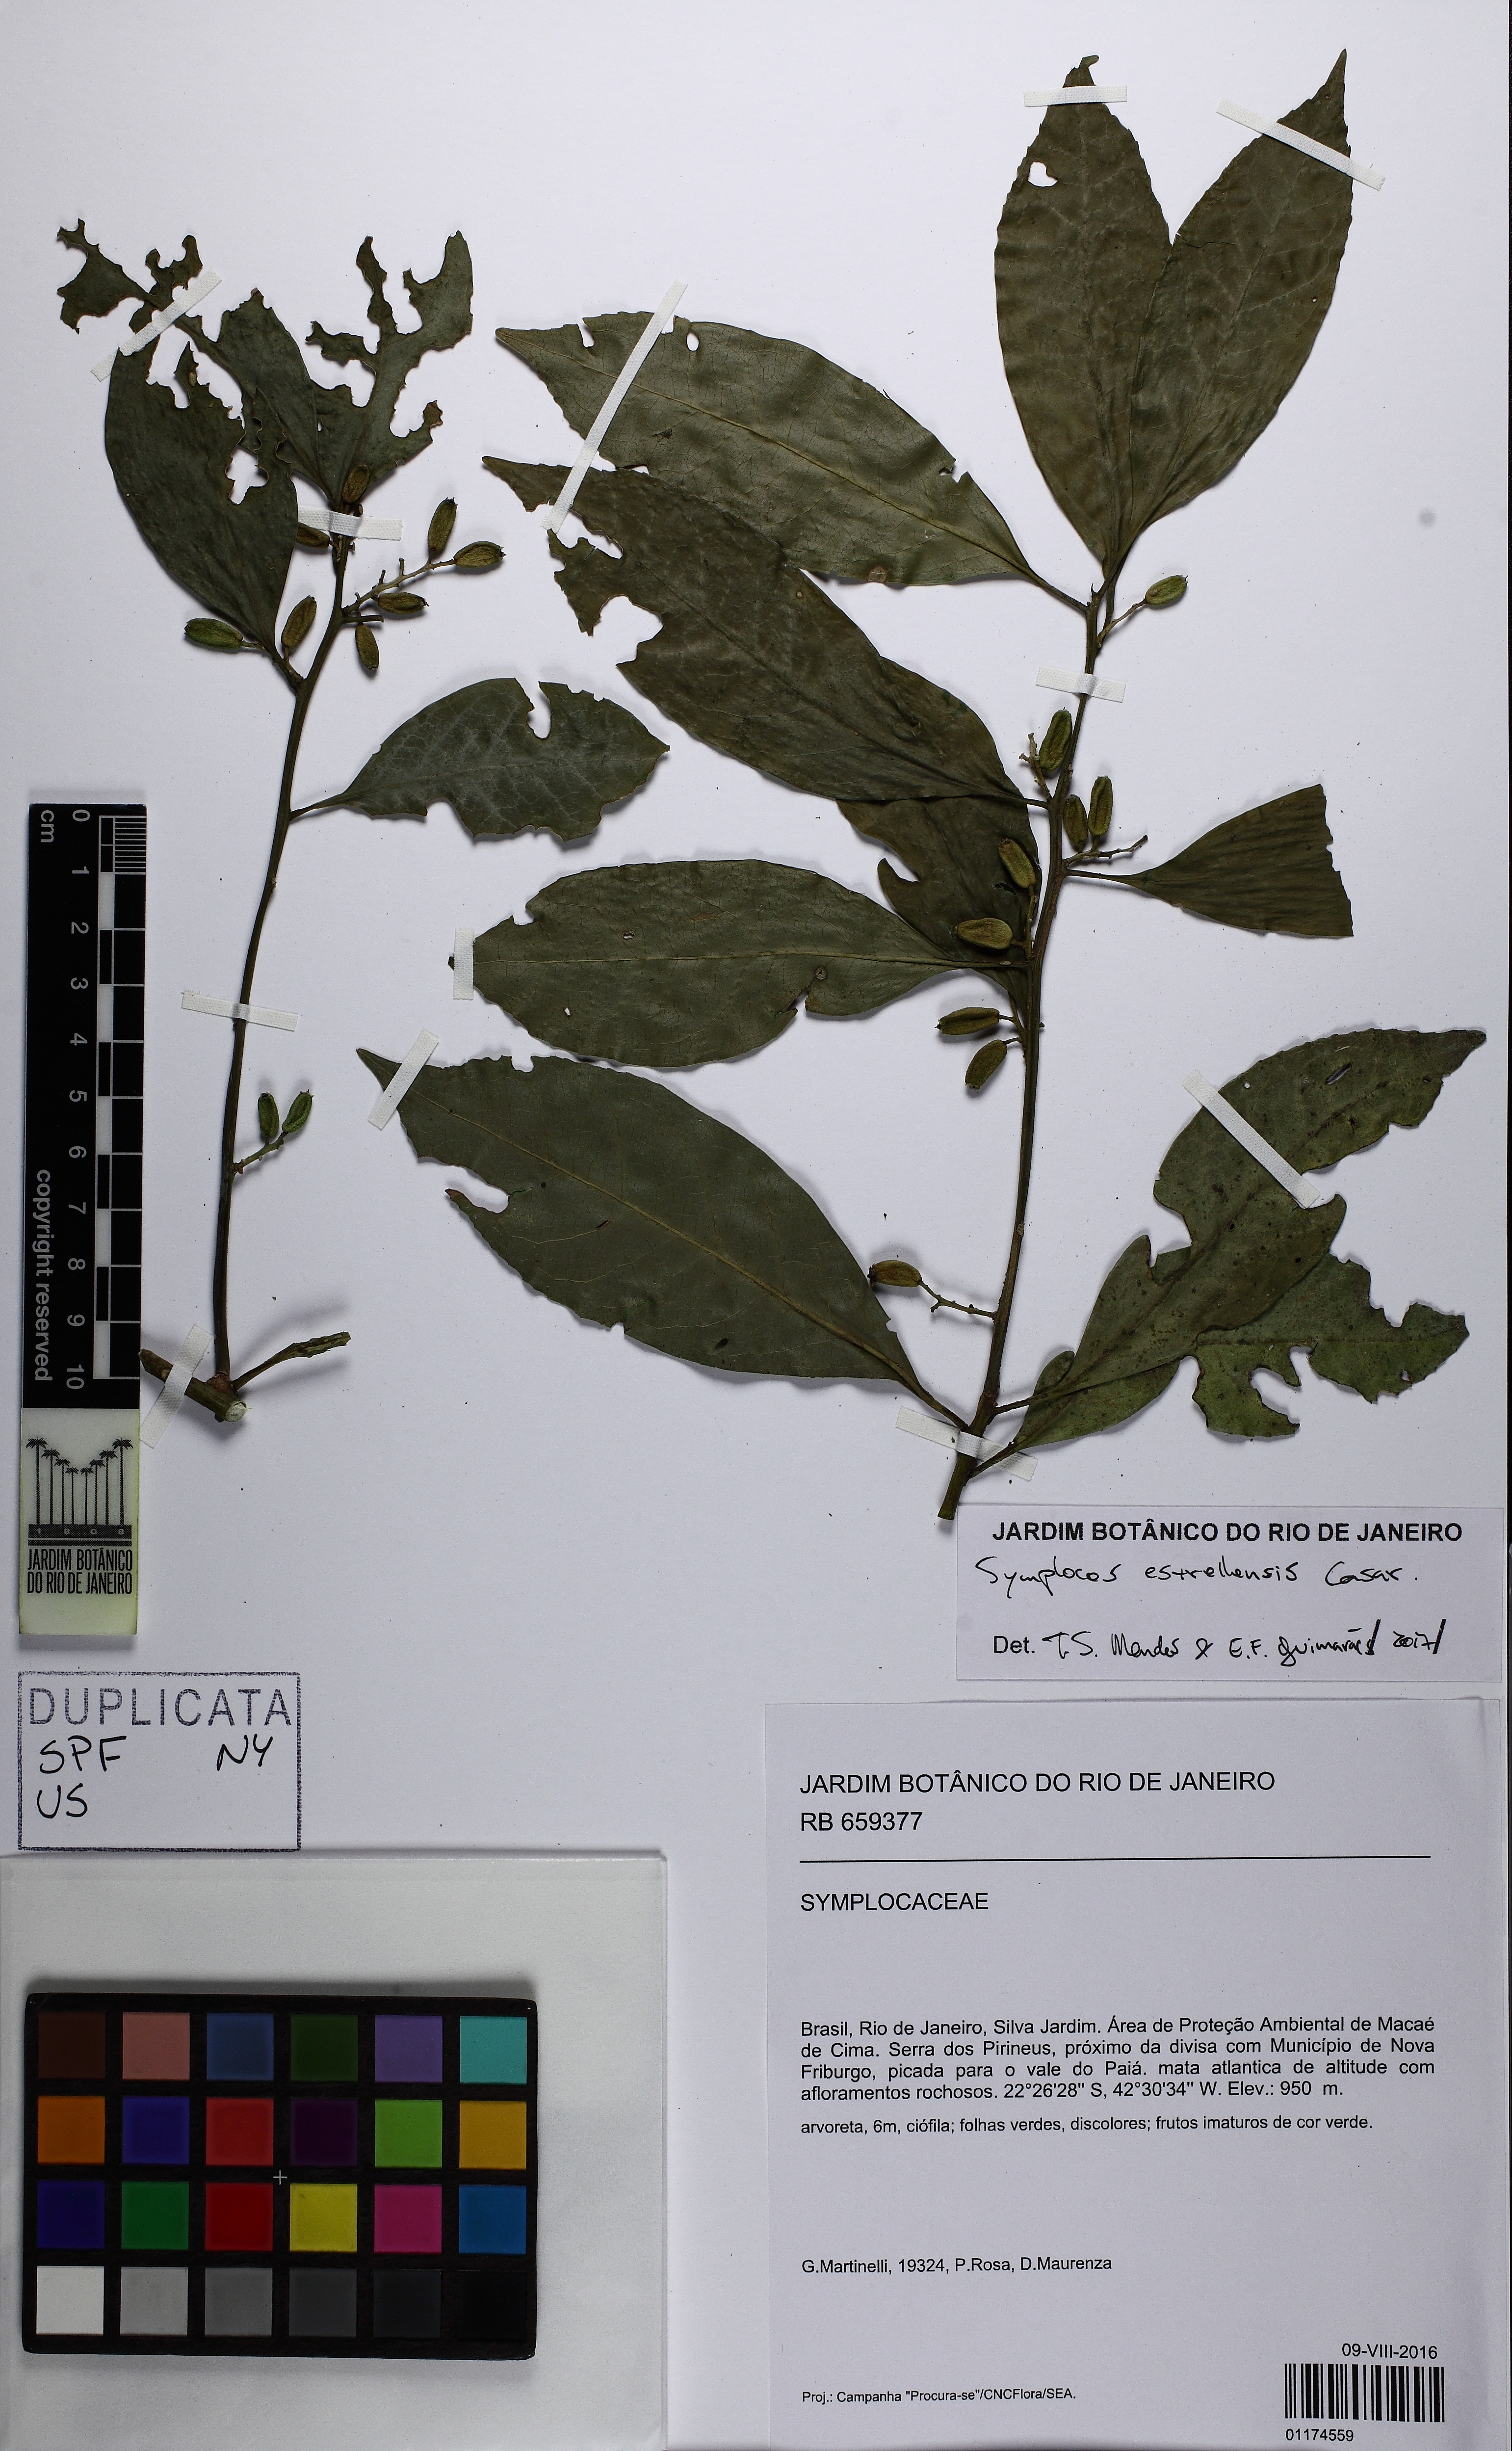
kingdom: Plantae
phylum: Tracheophyta
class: Magnoliopsida
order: Ericales
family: Symplocaceae
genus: Symplocos
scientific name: Symplocos estrellensis
